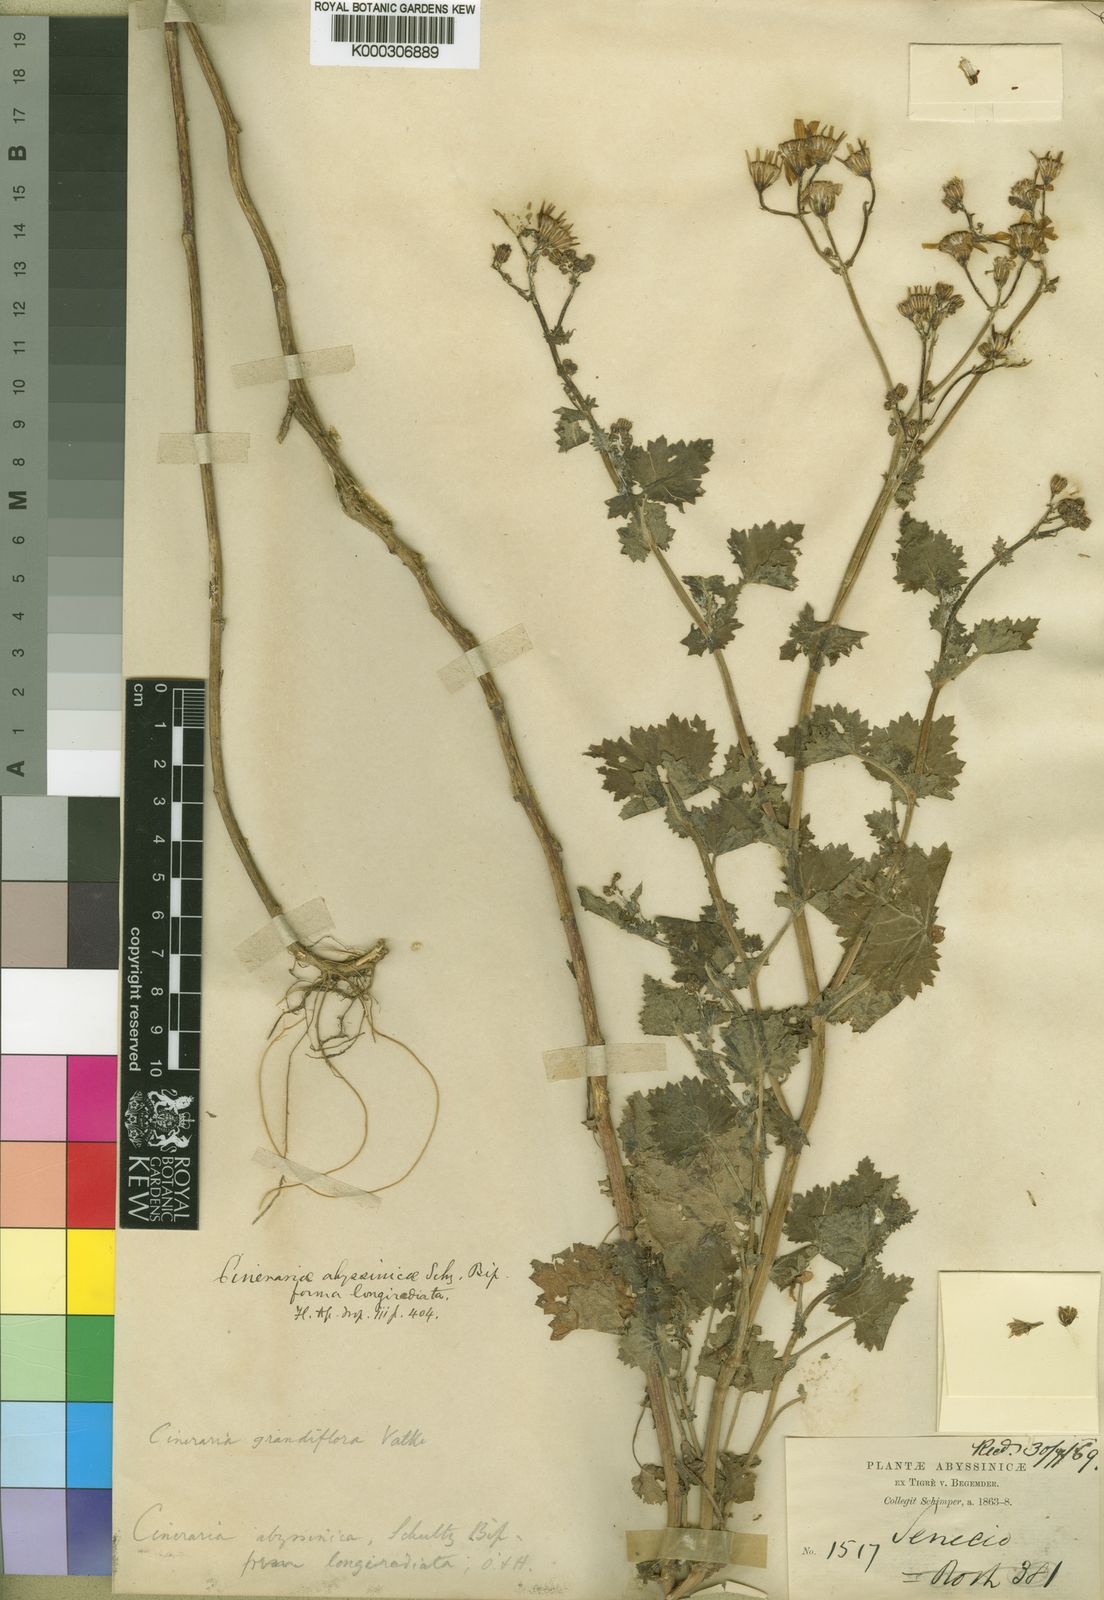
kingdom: Plantae
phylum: Tracheophyta
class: Magnoliopsida
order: Asterales
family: Asteraceae
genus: Cineraria
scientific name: Cineraria abyssinica
